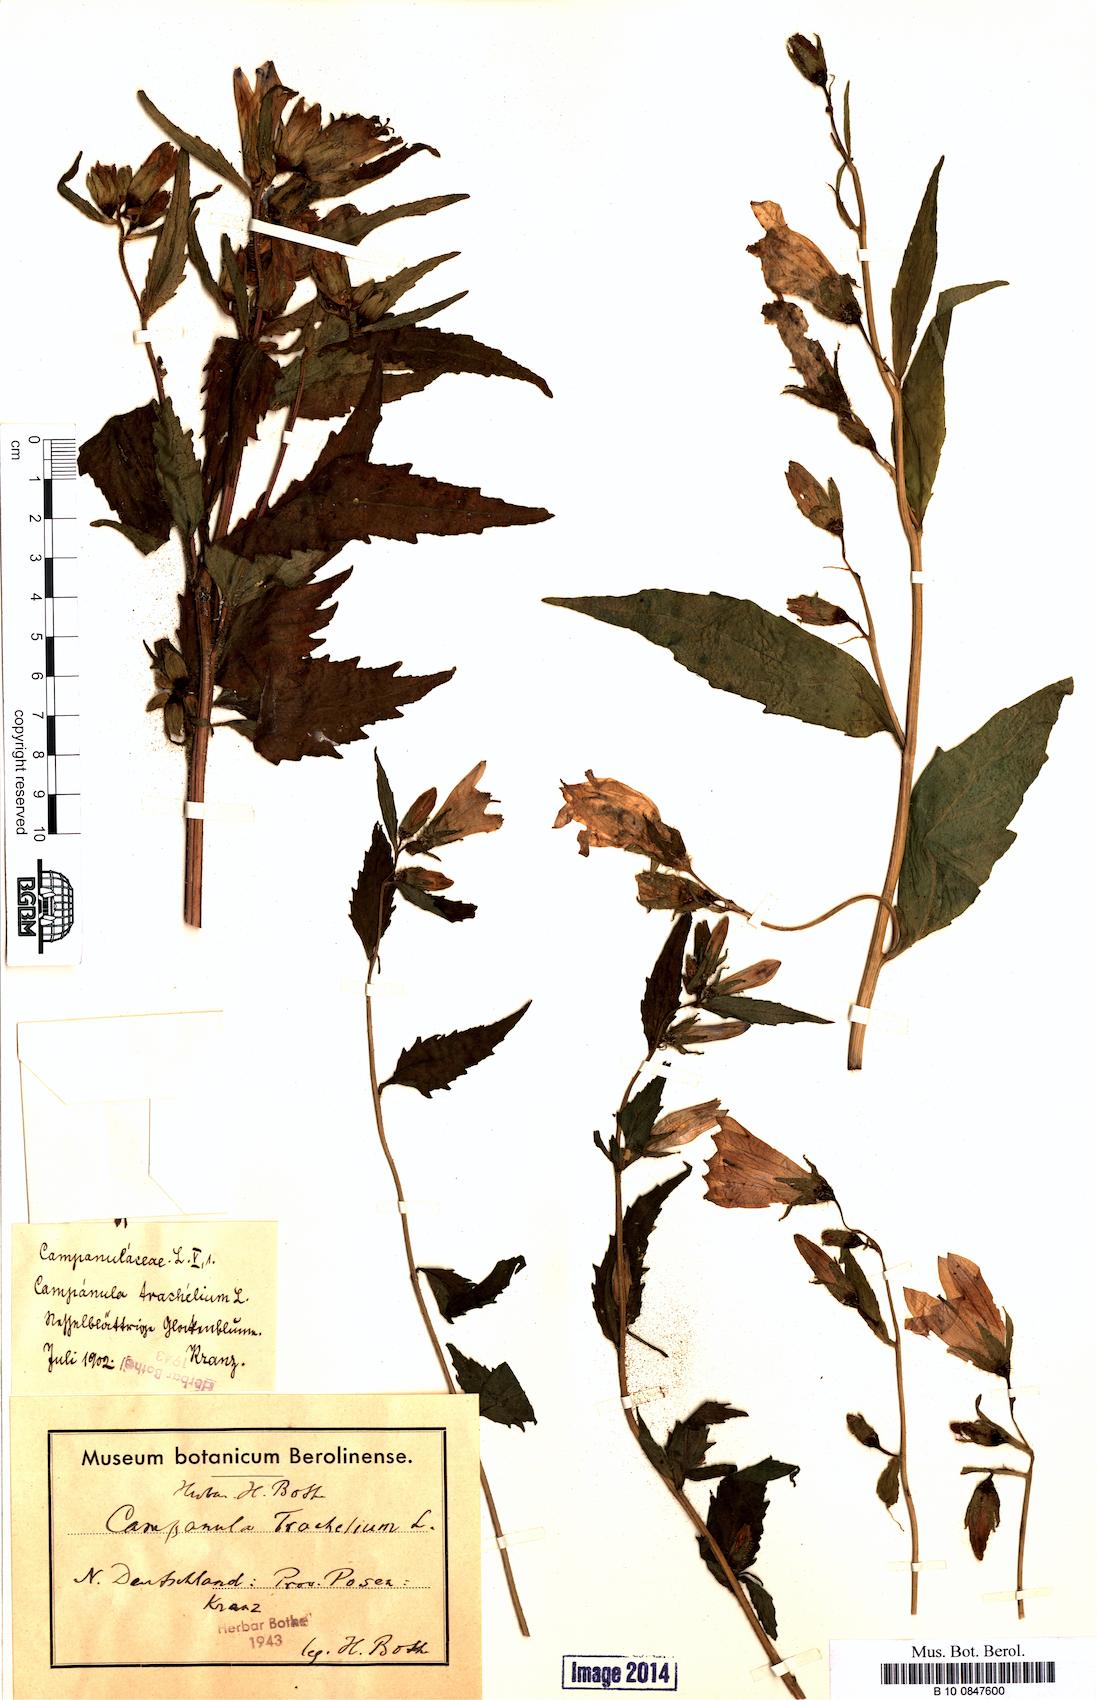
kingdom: Plantae
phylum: Tracheophyta
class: Magnoliopsida
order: Asterales
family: Campanulaceae
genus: Campanula
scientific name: Campanula trachelium
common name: Nettle-leaved bellflower
